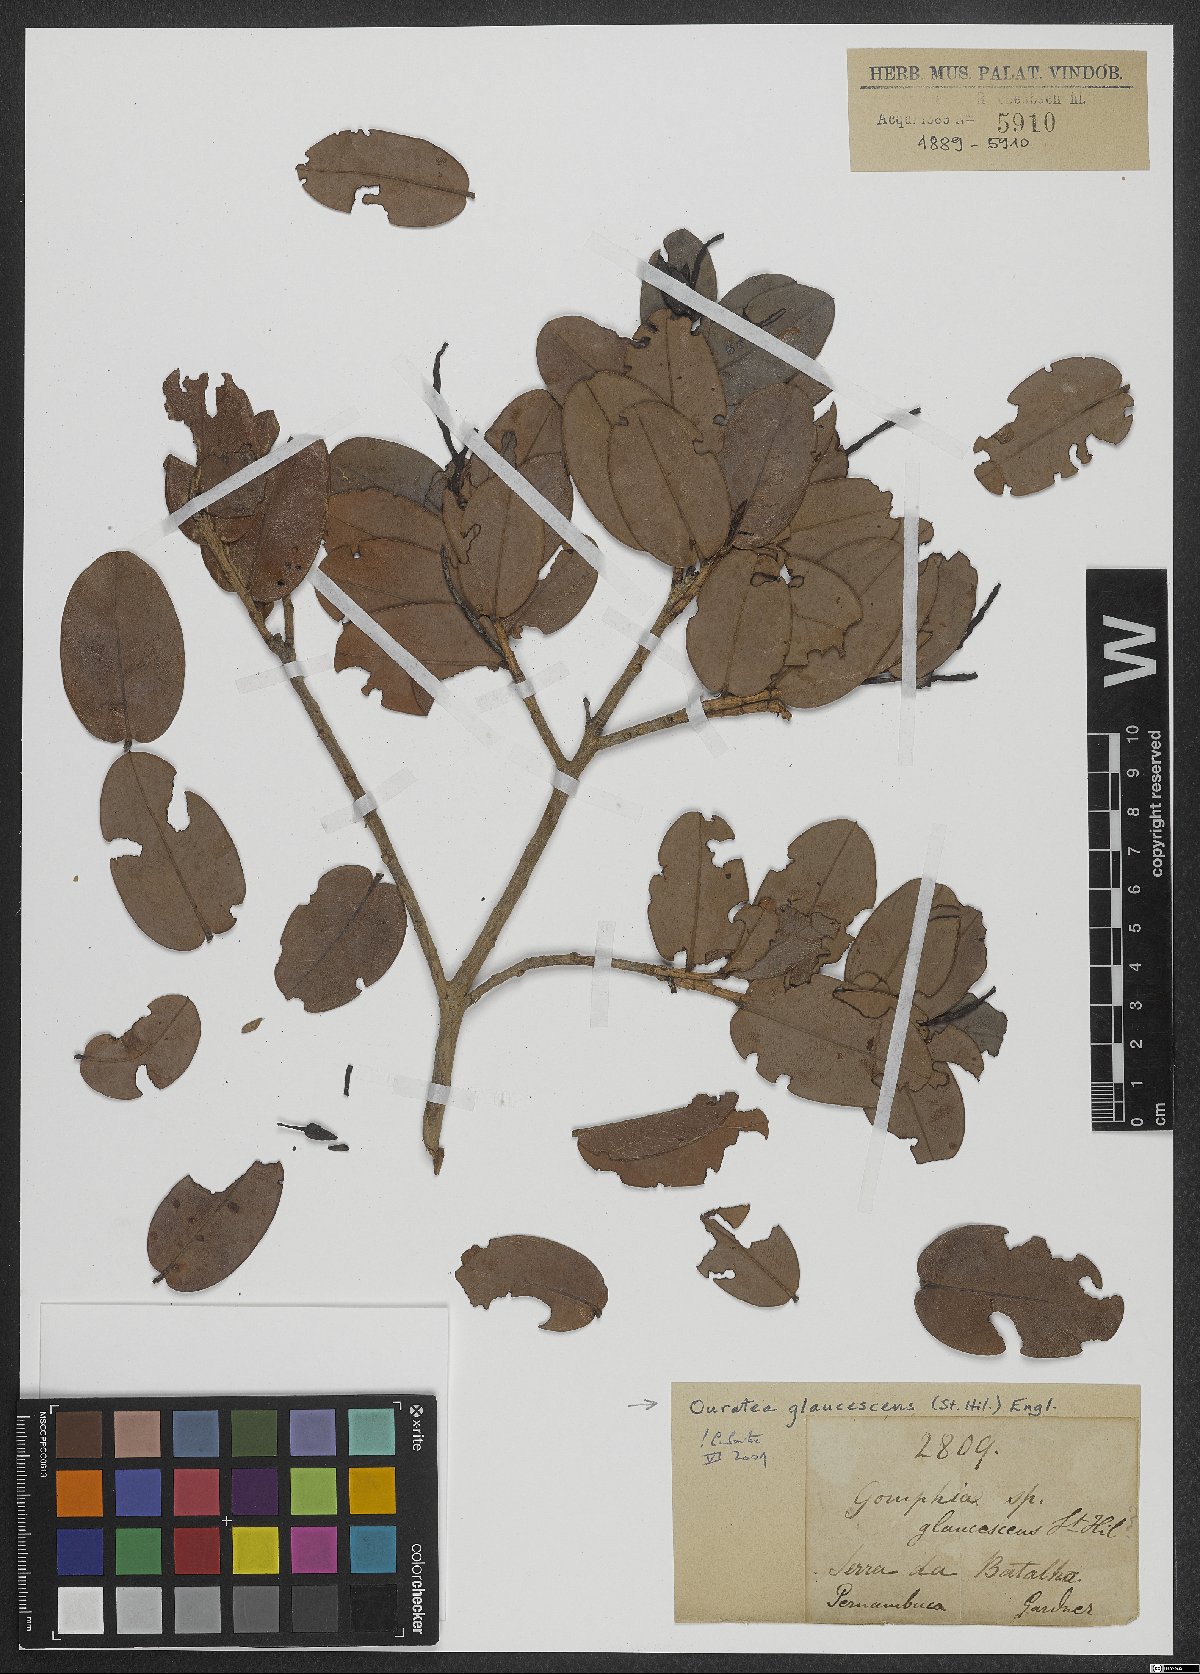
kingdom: Plantae
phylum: Tracheophyta
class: Magnoliopsida
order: Malpighiales
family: Ochnaceae
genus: Ouratea
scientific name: Ouratea glaucescens
